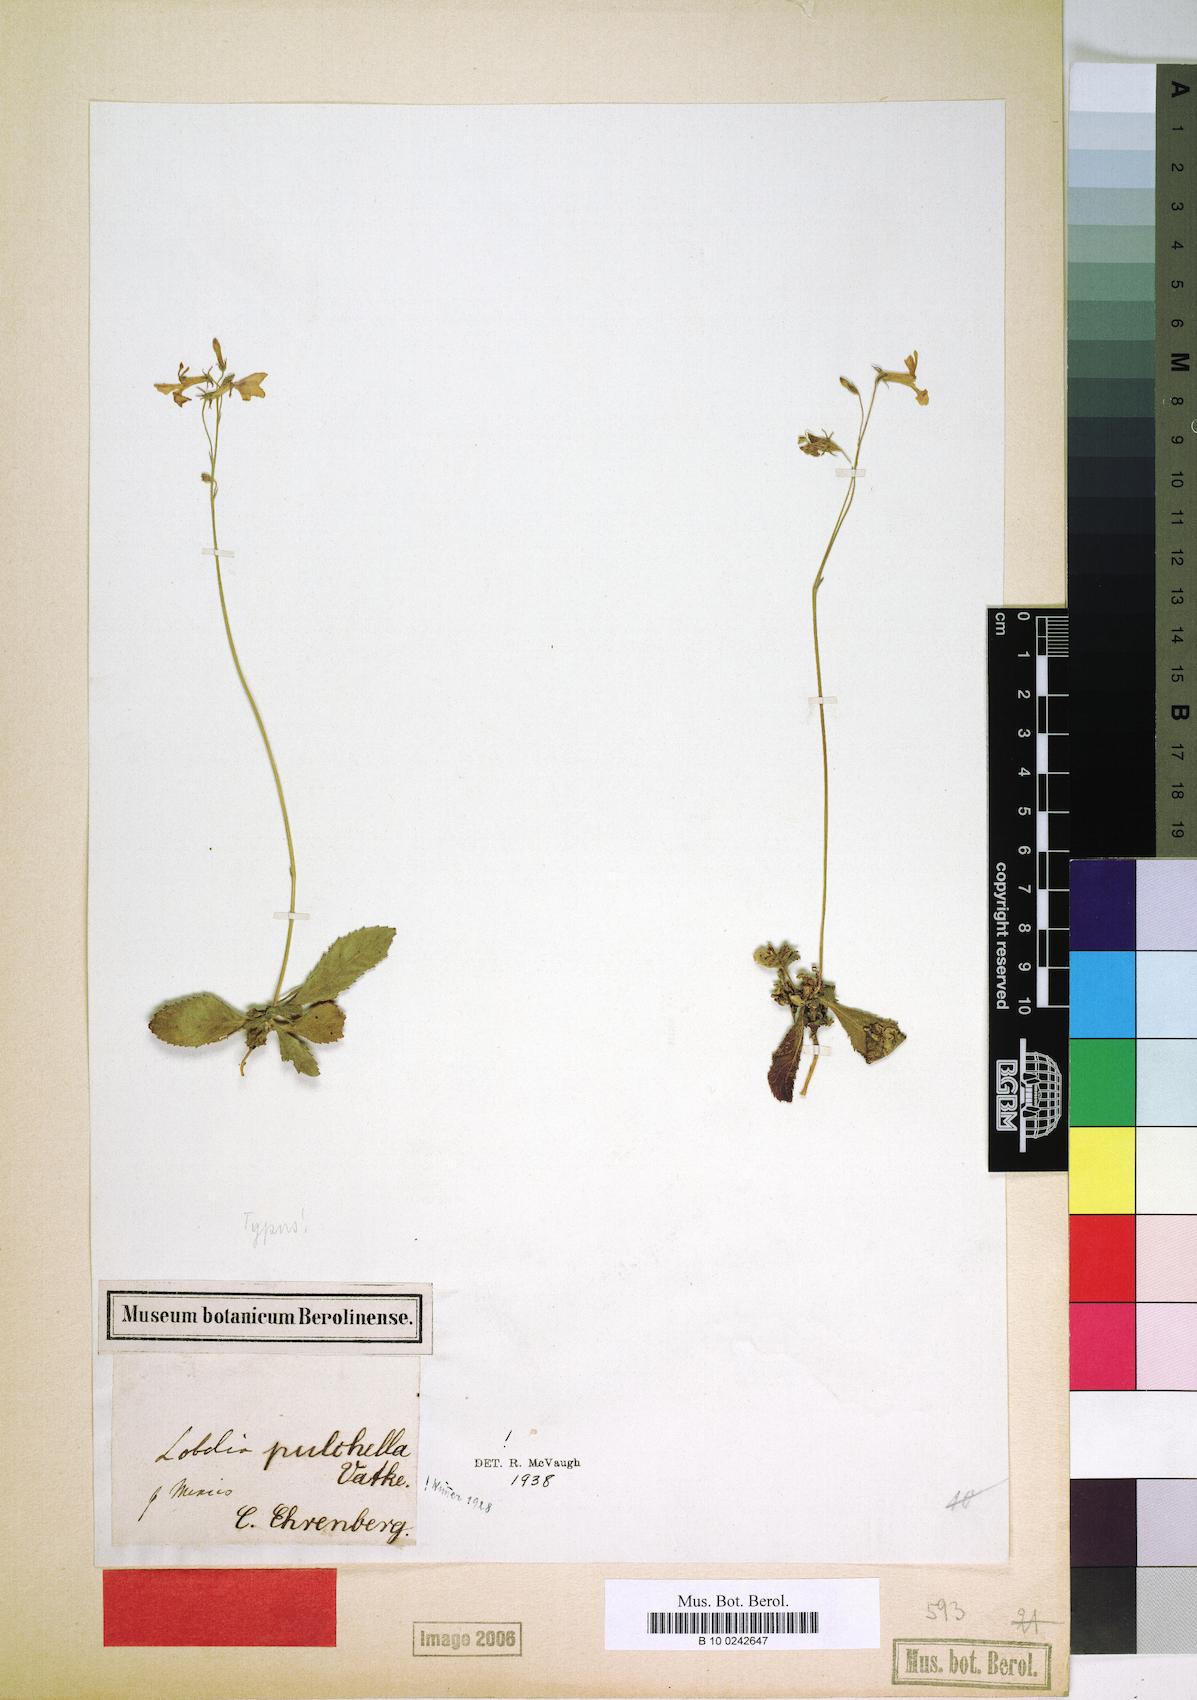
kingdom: Plantae
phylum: Tracheophyta
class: Magnoliopsida
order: Asterales
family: Campanulaceae
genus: Lobelia
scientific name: Lobelia pulchella
